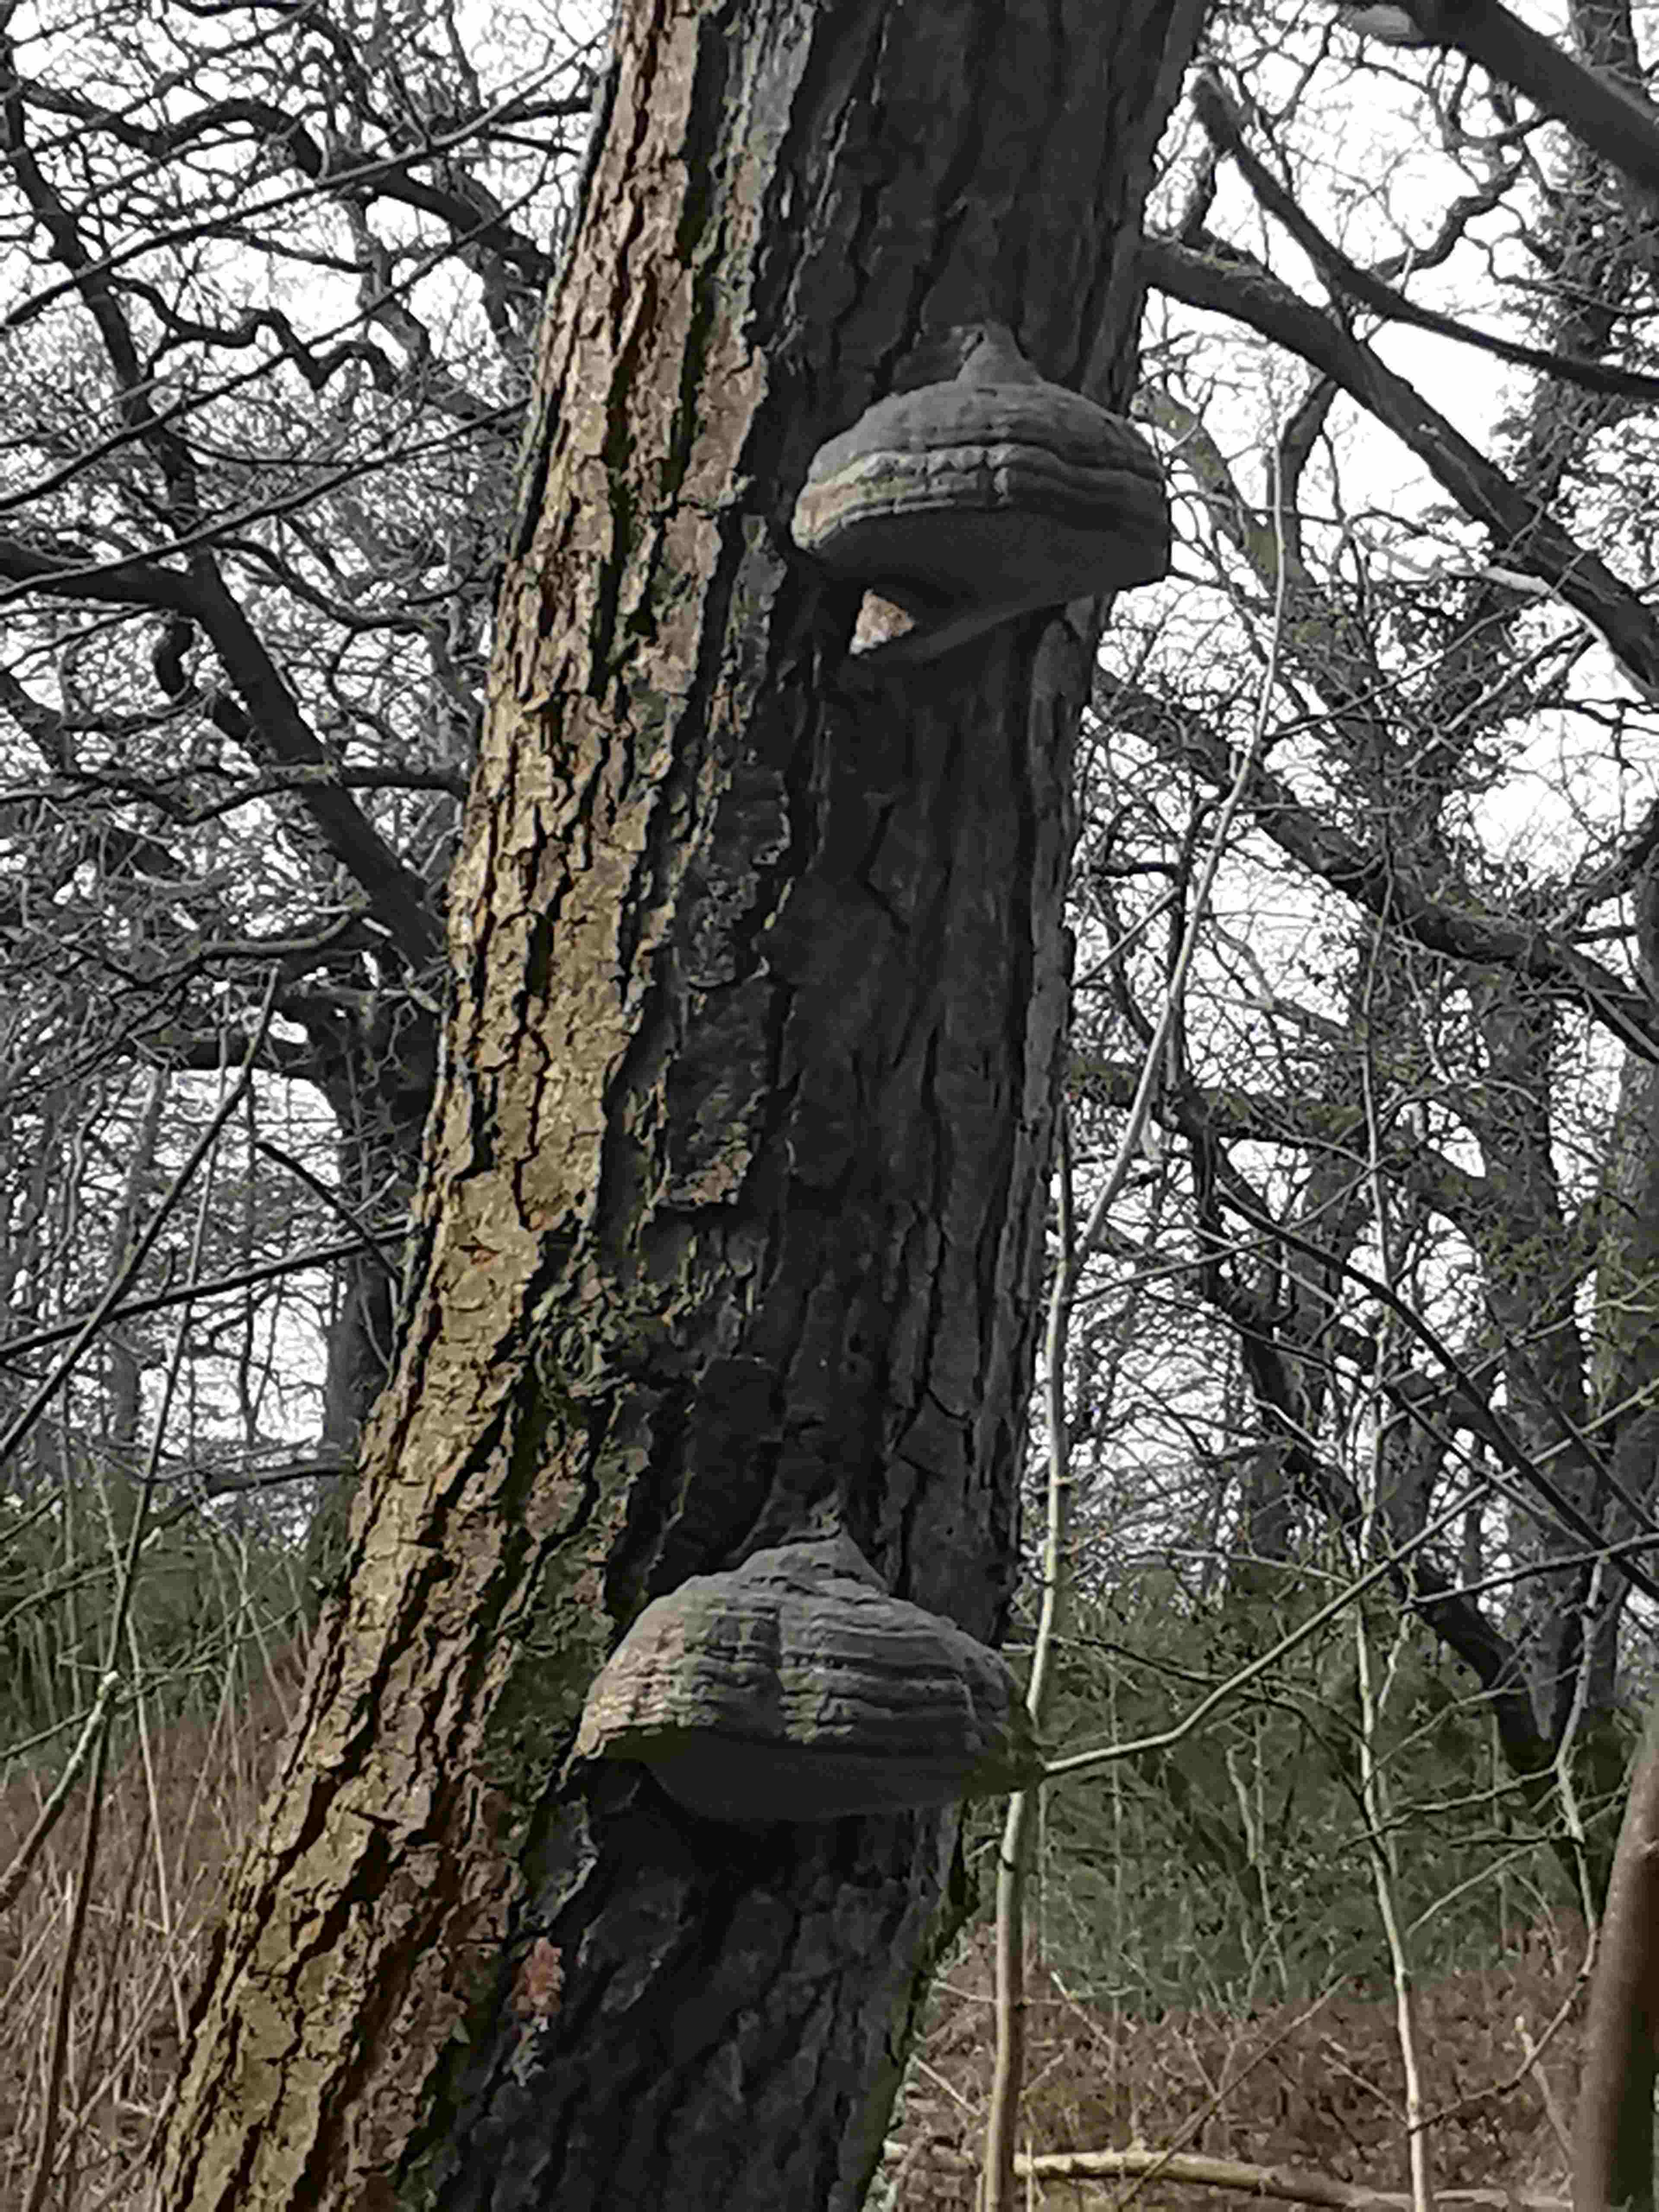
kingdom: Fungi
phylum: Basidiomycota
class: Agaricomycetes
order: Polyporales
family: Polyporaceae
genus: Fomes
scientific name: Fomes fomentarius
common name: tøndersvamp
